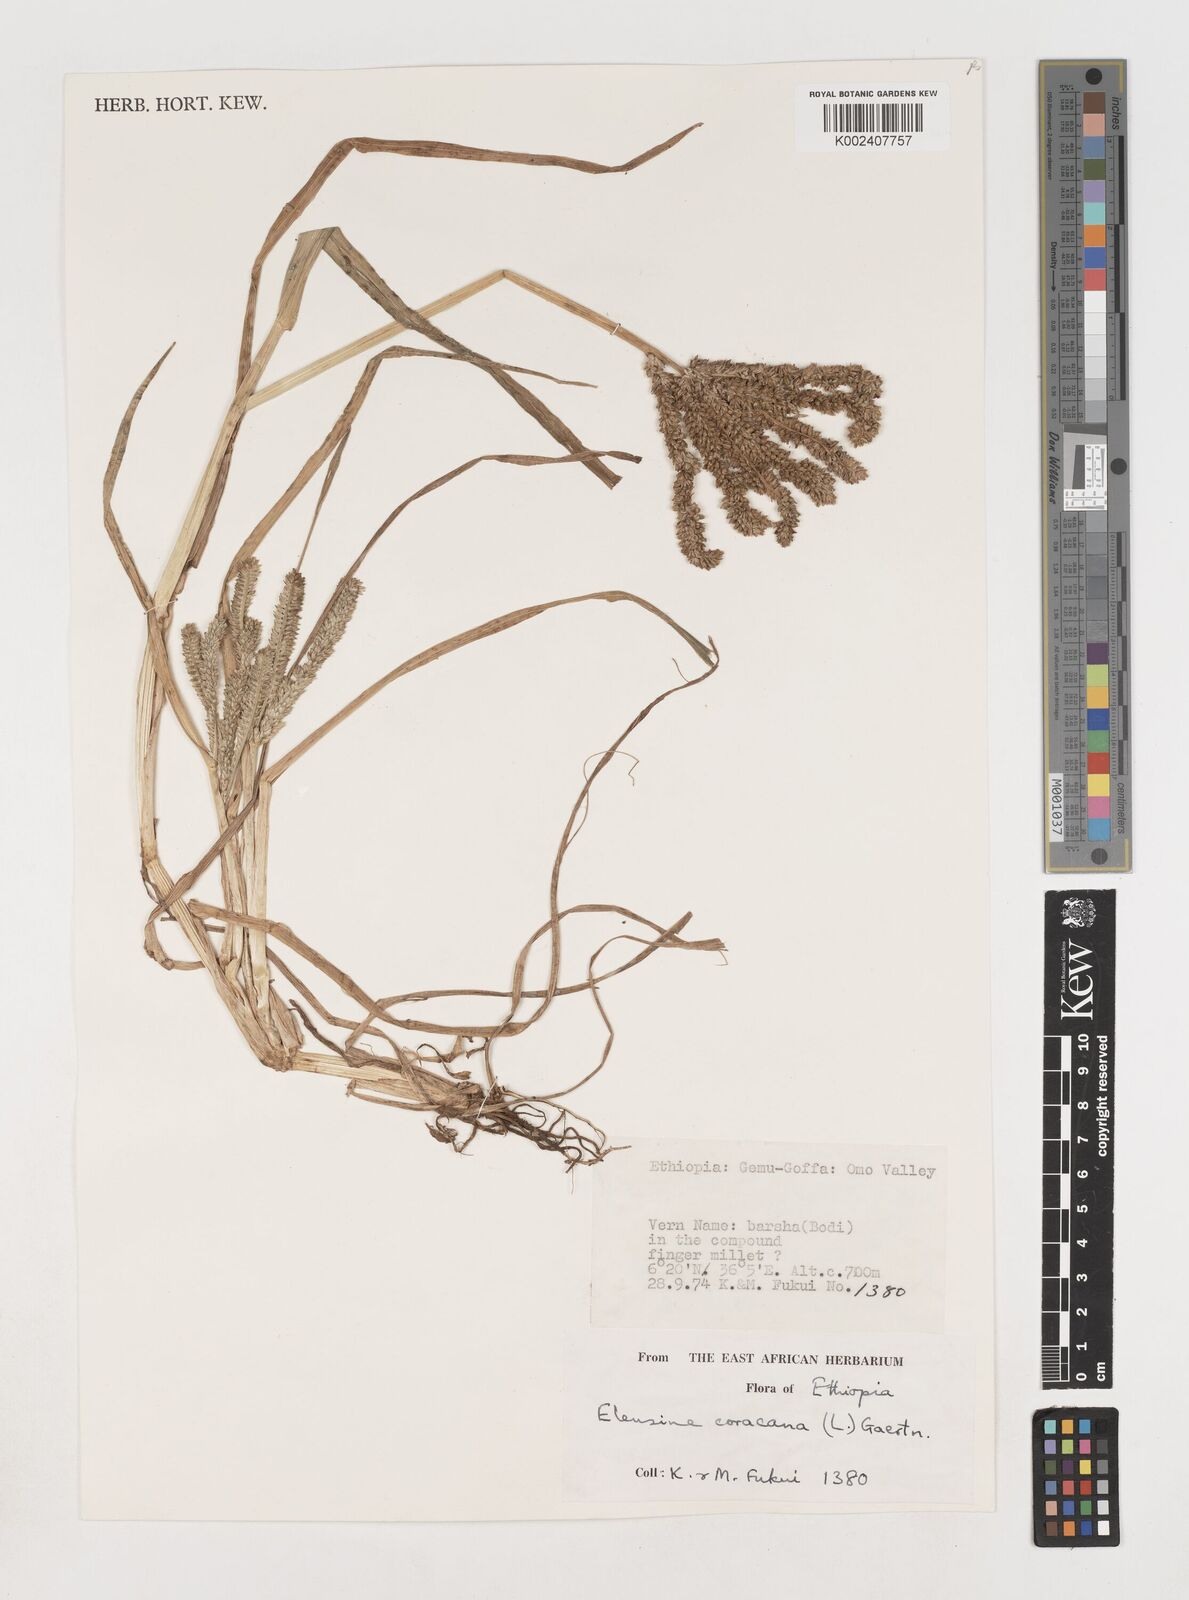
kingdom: Plantae
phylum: Tracheophyta
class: Liliopsida
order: Poales
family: Poaceae
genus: Eleusine
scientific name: Eleusine coracana
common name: Finger millet
